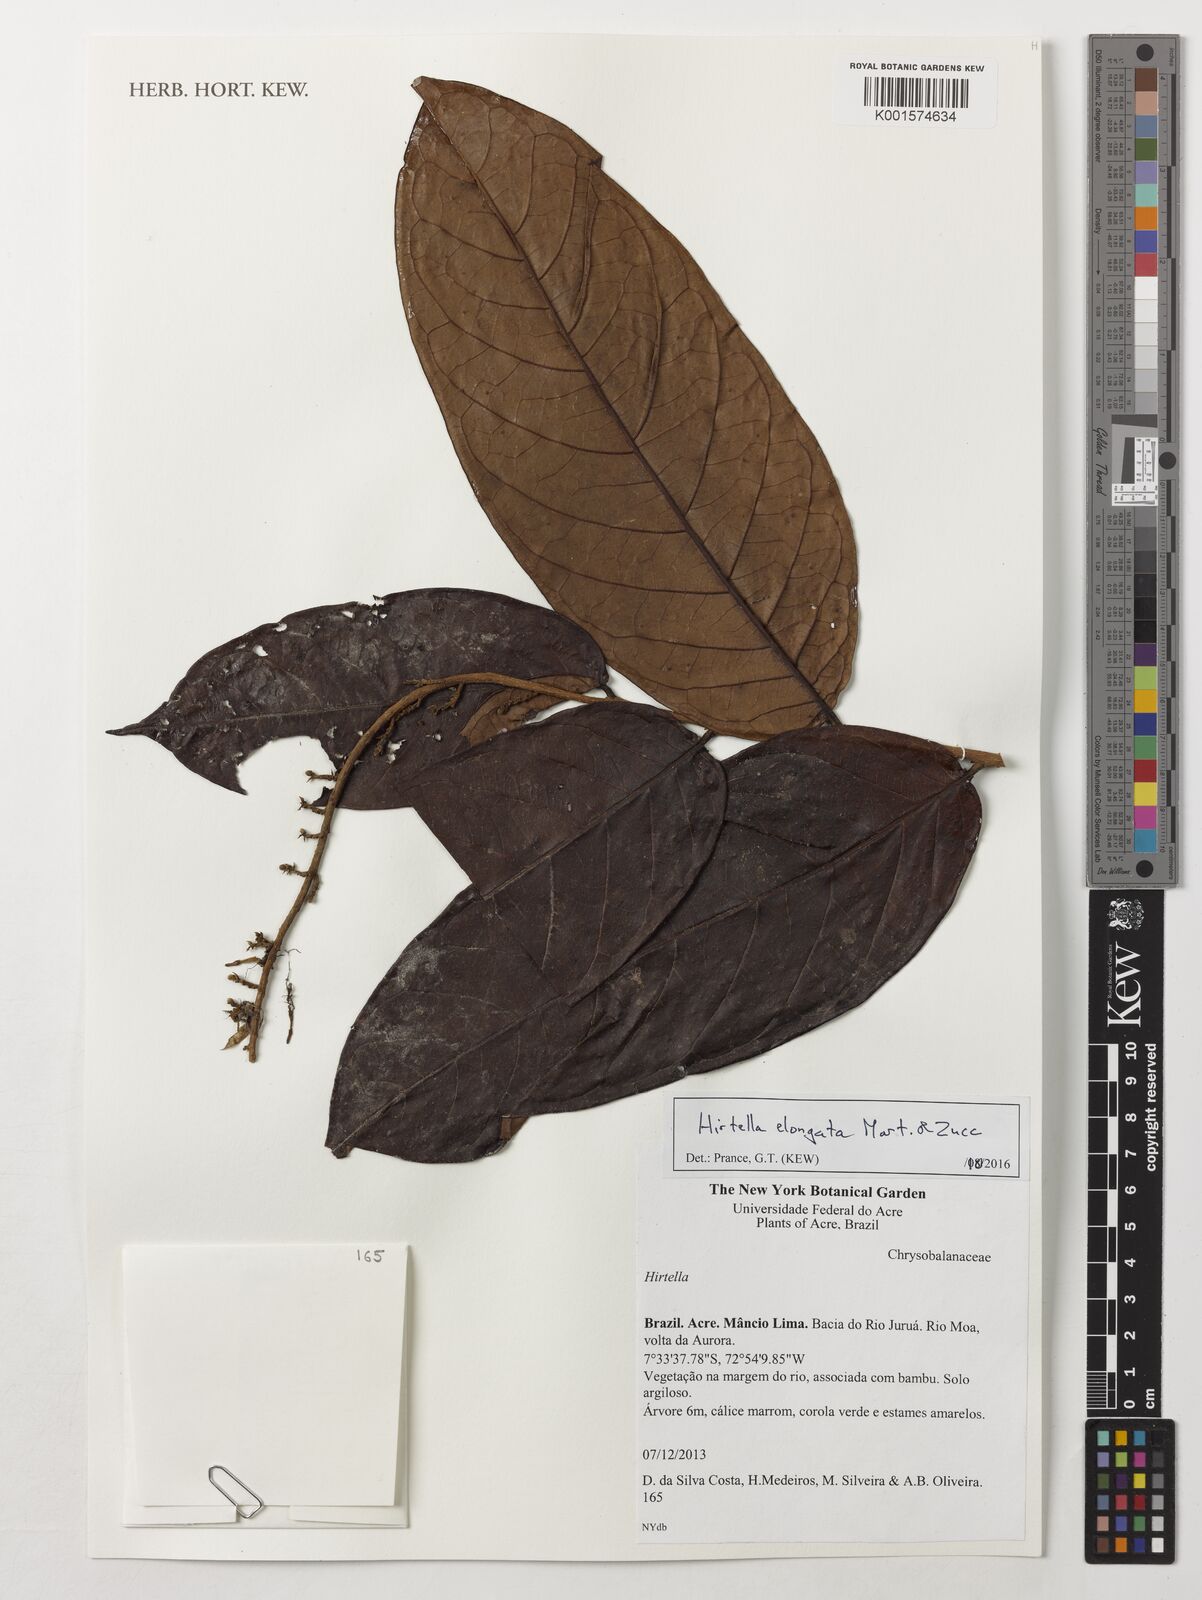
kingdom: Plantae
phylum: Tracheophyta
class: Magnoliopsida
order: Malpighiales
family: Chrysobalanaceae
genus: Hirtella
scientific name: Hirtella elongata
